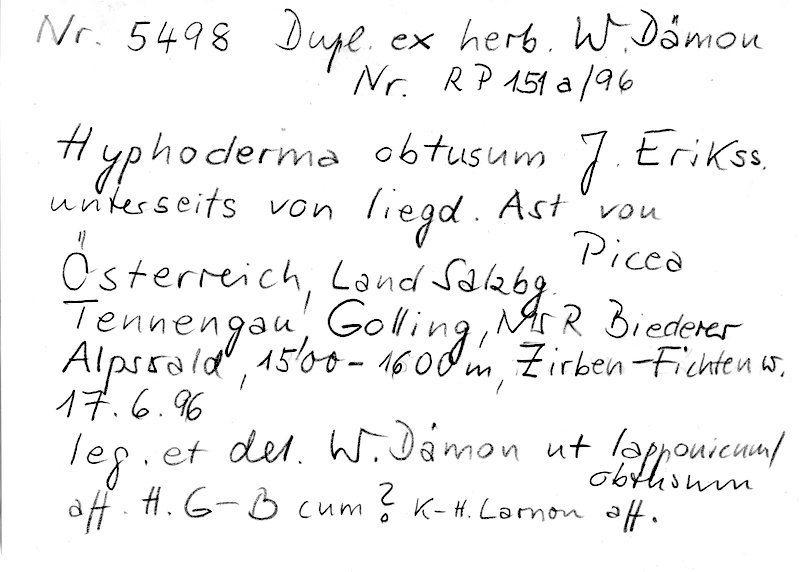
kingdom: Fungi
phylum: Basidiomycota
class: Agaricomycetes
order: Polyporales
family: Hyphodermataceae
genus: Hyphoderma
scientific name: Hyphoderma obtusum
